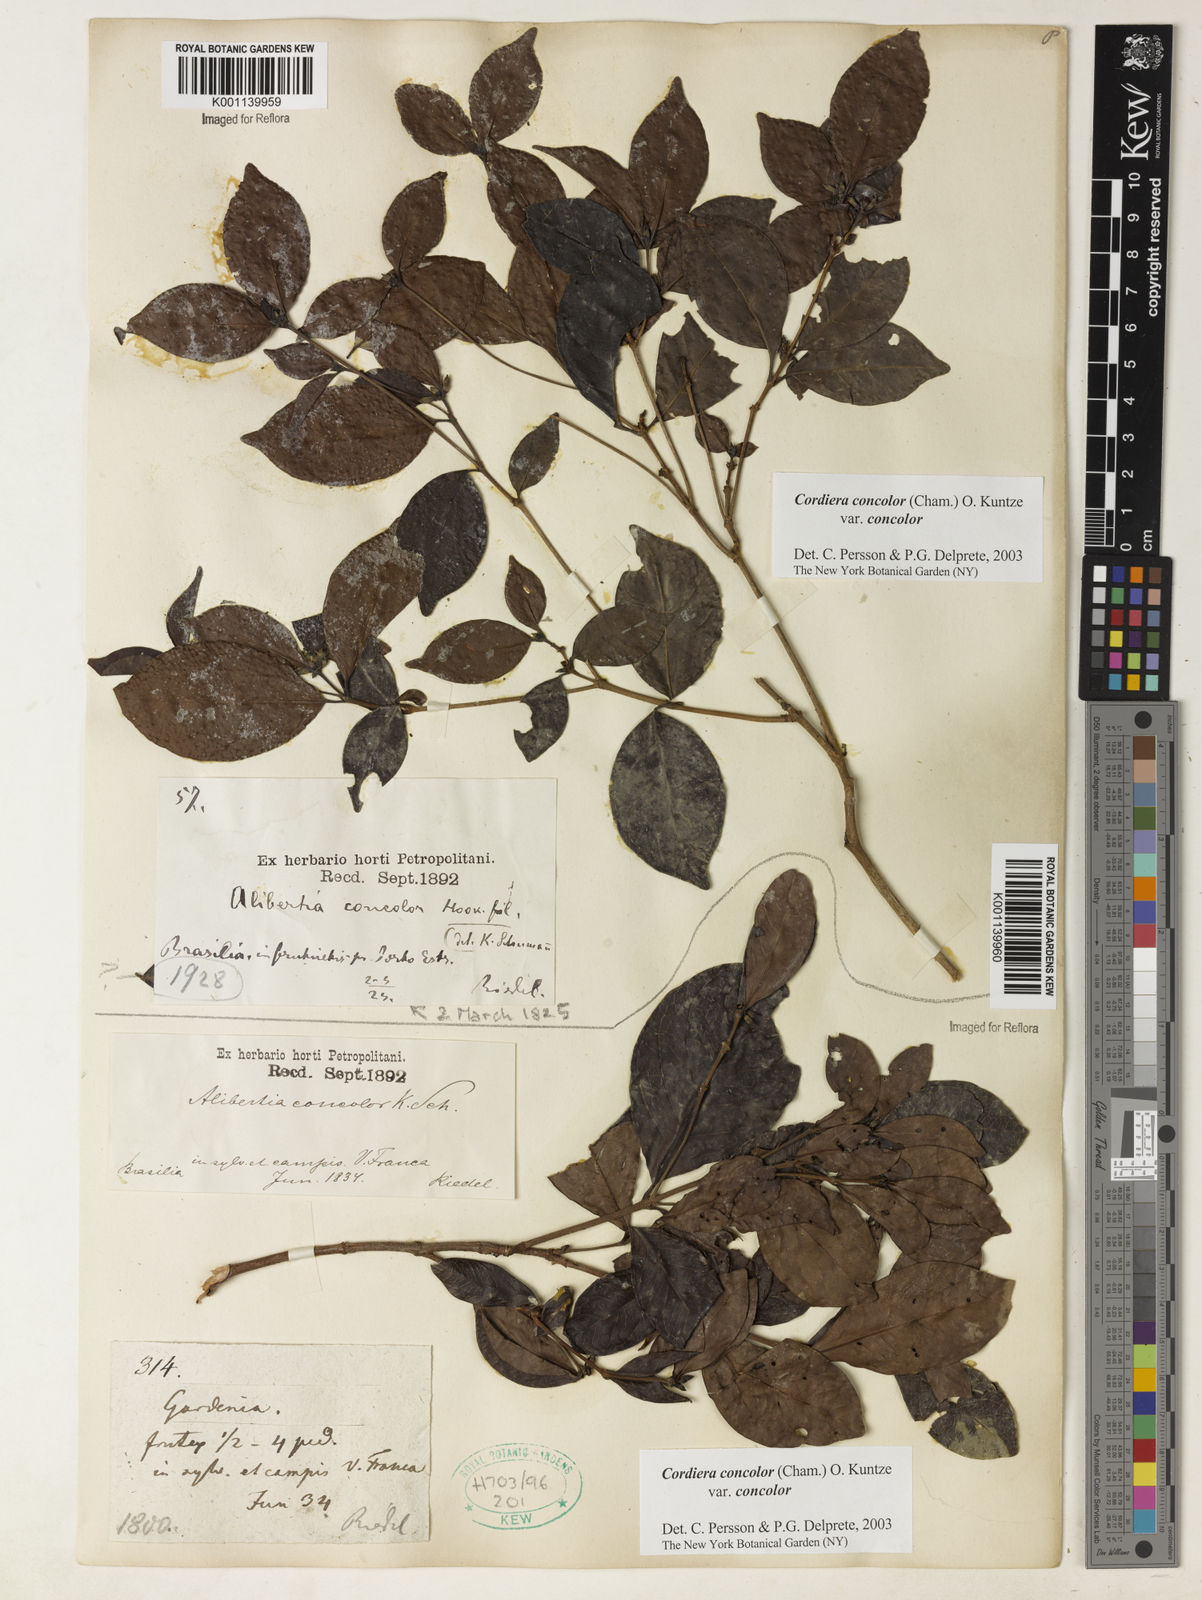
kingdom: Plantae
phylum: Tracheophyta
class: Magnoliopsida
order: Gentianales
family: Rubiaceae
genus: Cordiera
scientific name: Cordiera concolor
